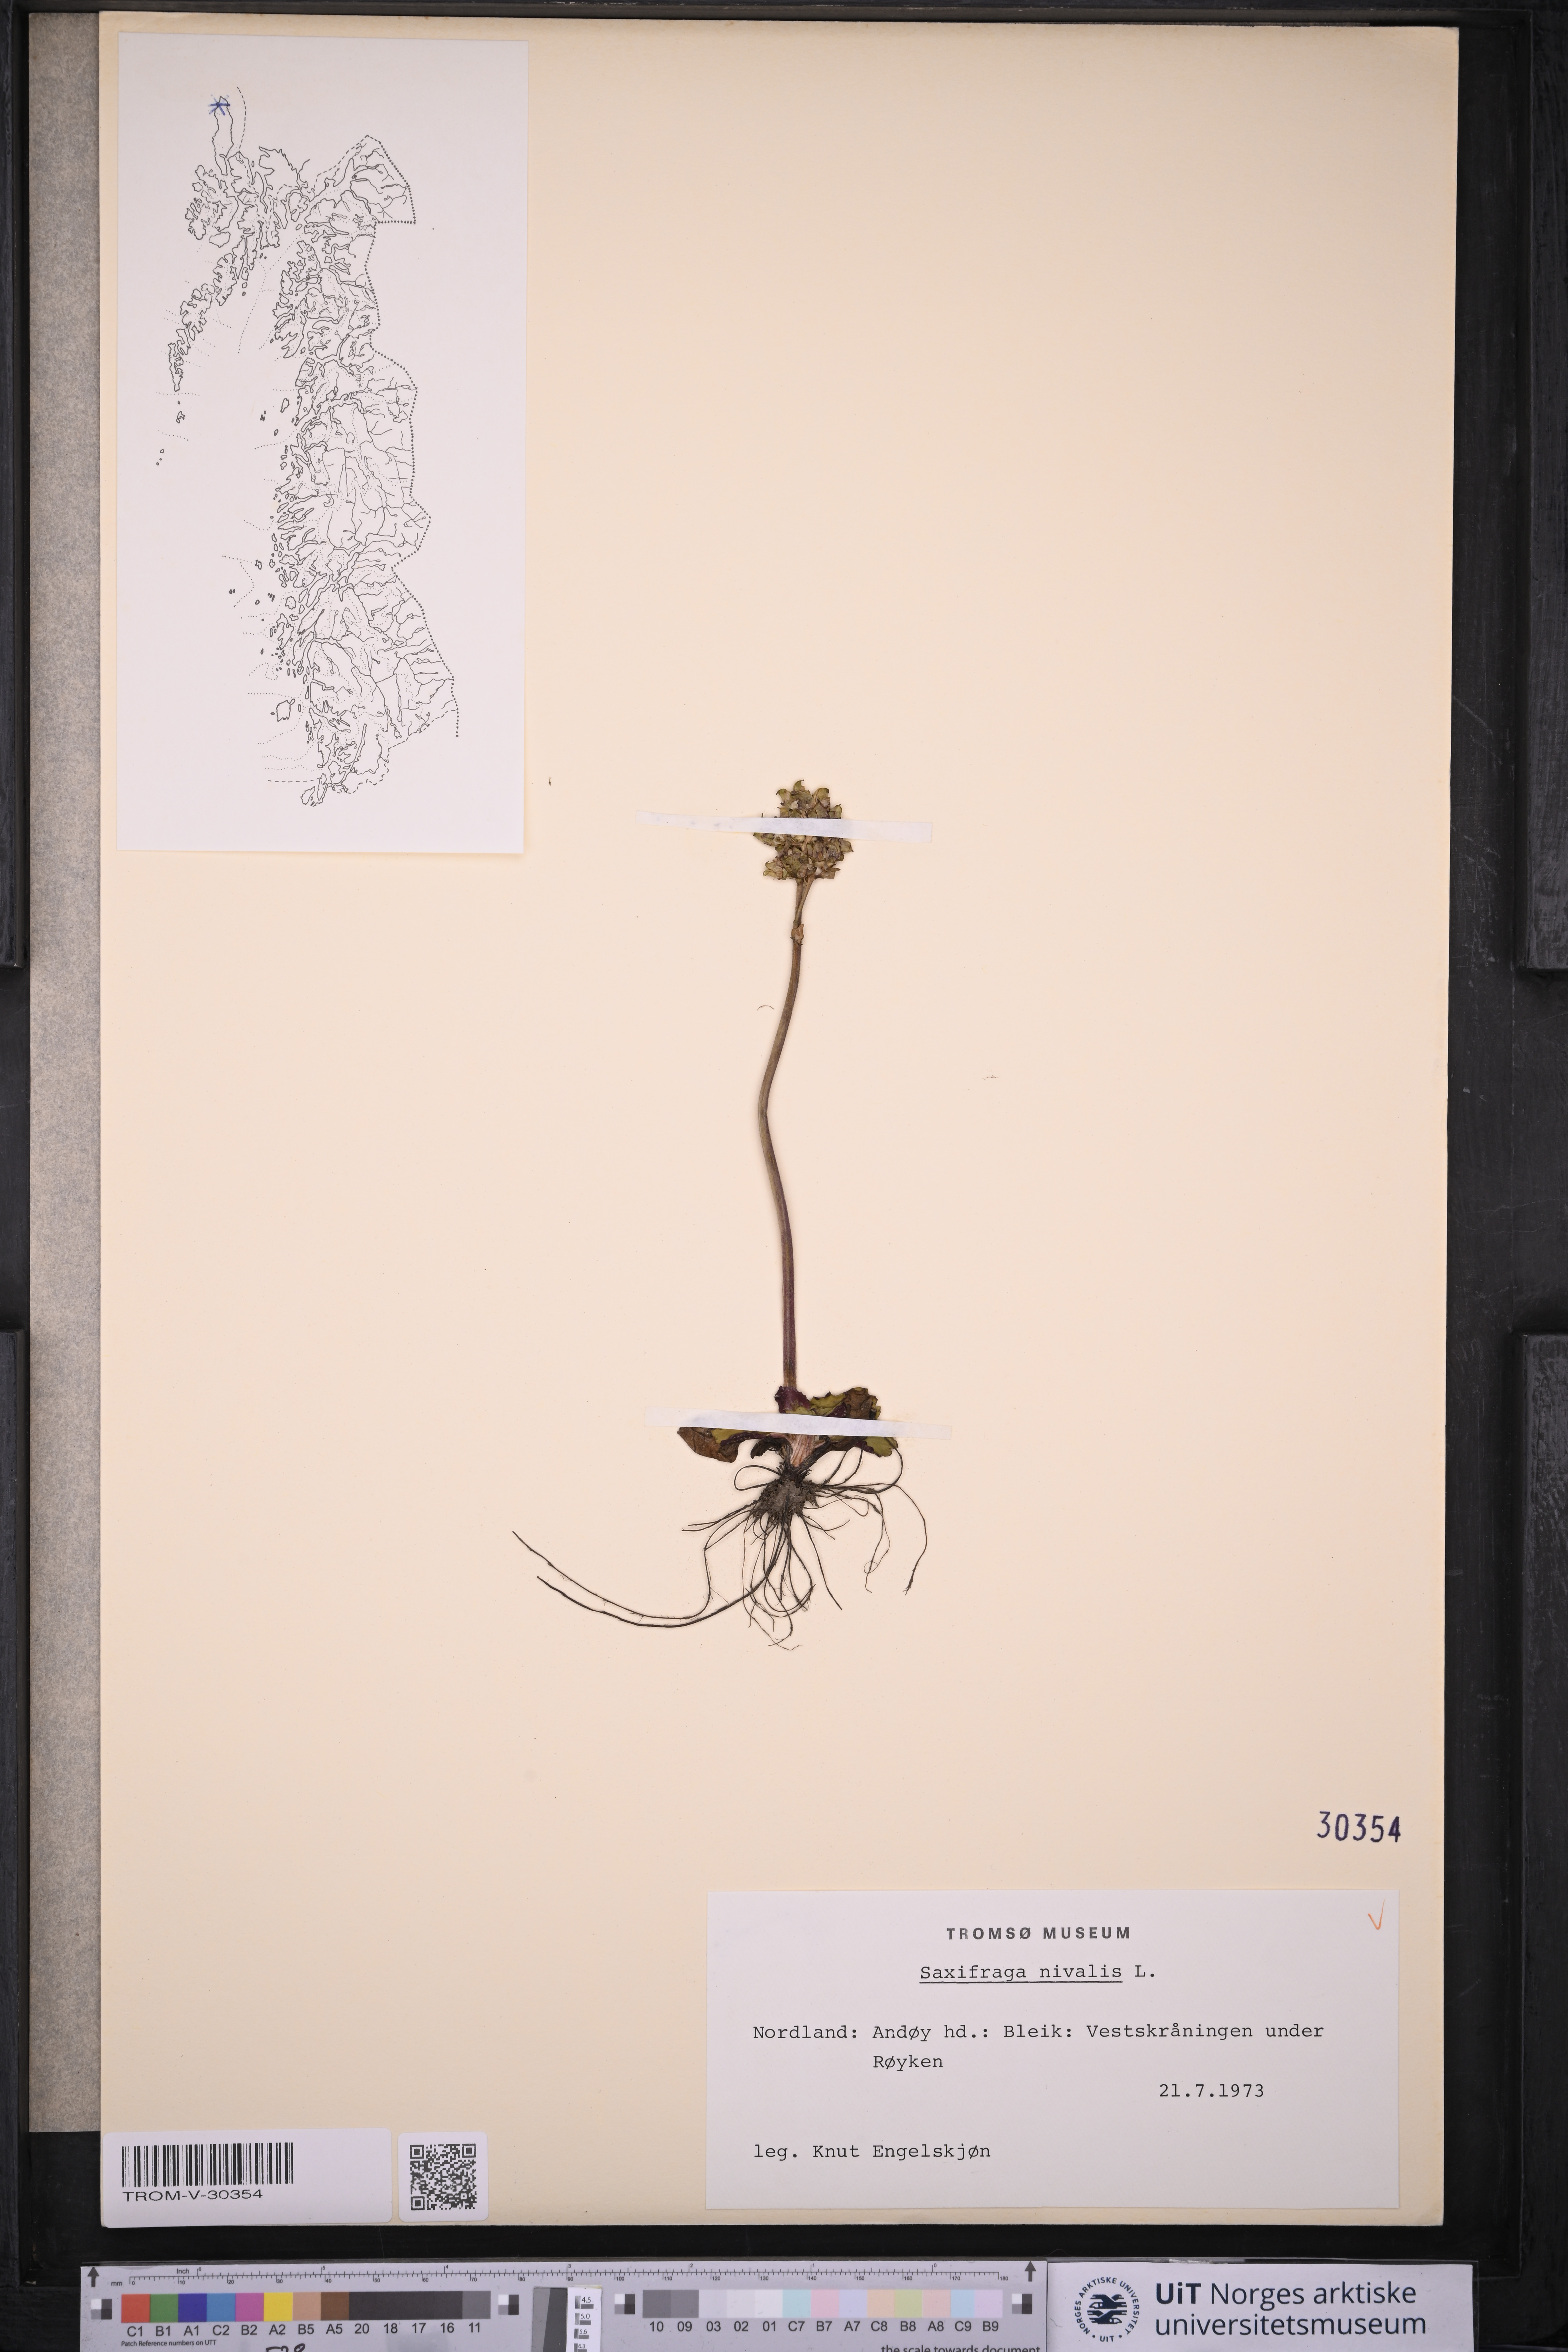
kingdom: Plantae
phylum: Tracheophyta
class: Magnoliopsida
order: Saxifragales
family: Saxifragaceae
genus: Micranthes
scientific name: Micranthes nivalis
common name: Alpine saxifrage
